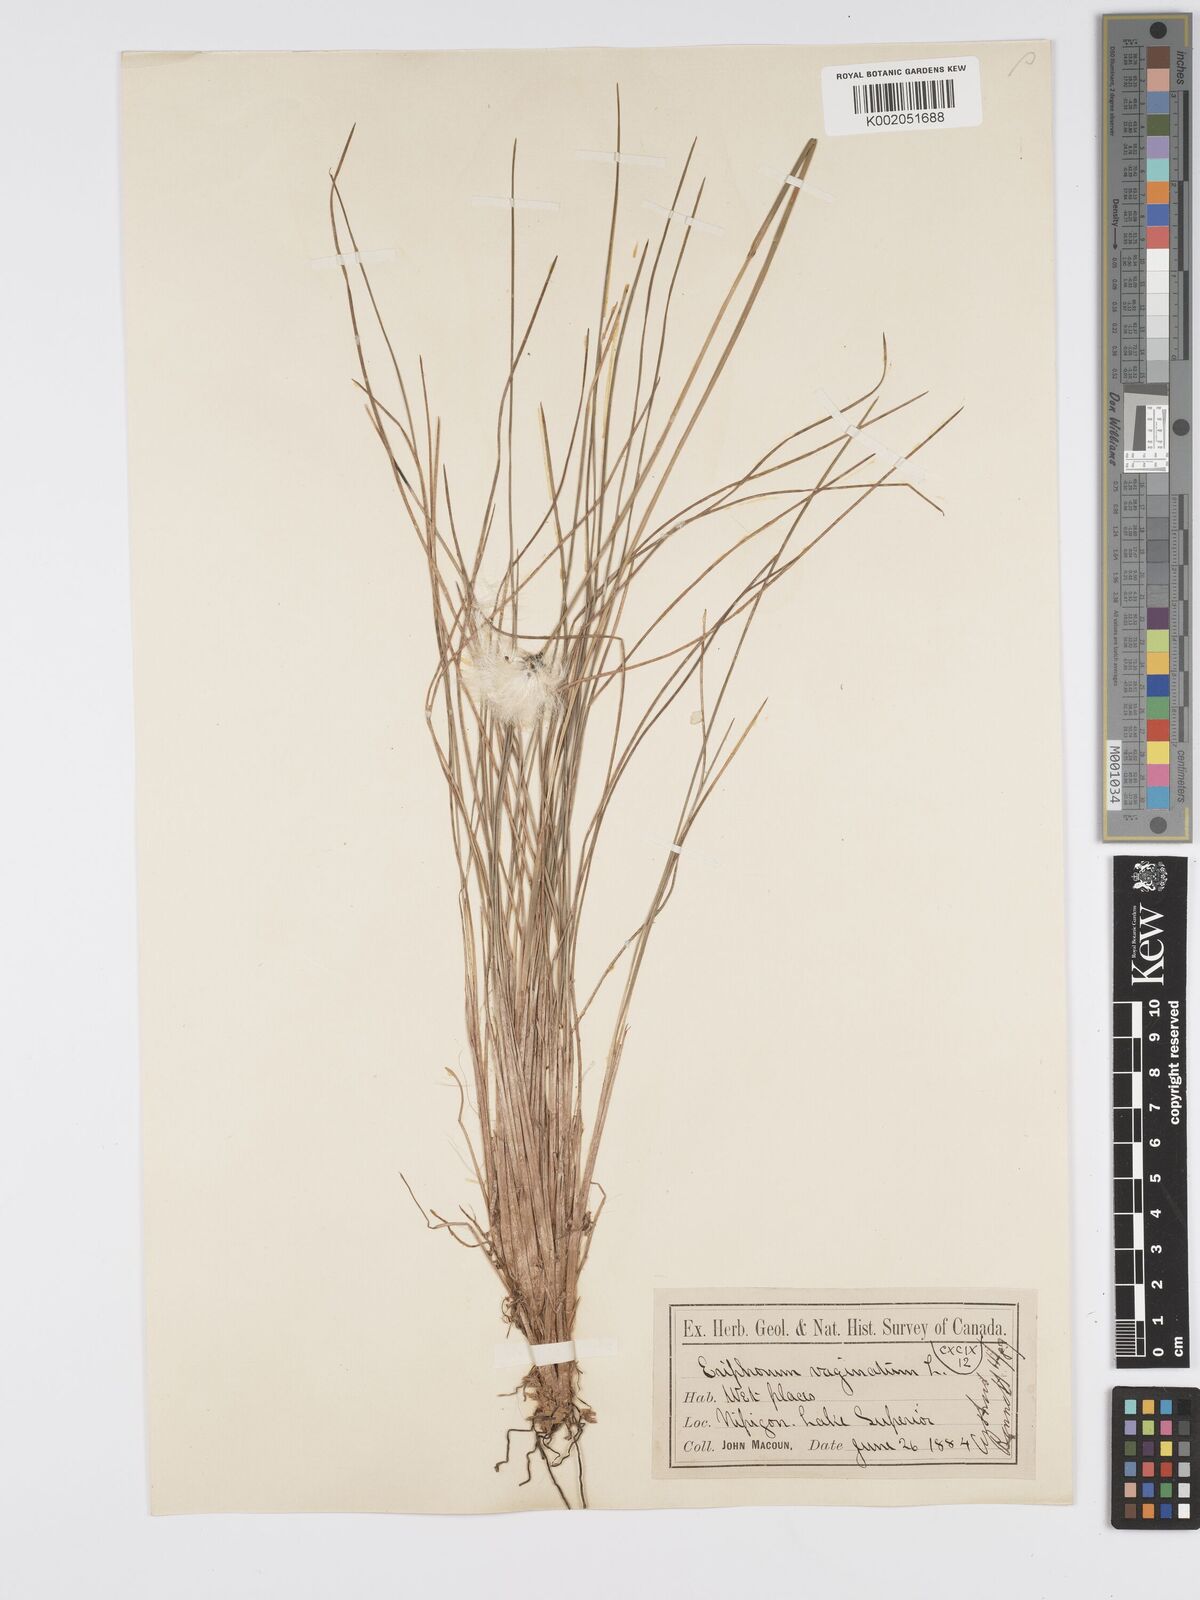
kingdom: Plantae
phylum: Tracheophyta
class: Liliopsida
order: Poales
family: Cyperaceae
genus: Eriophorum
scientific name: Eriophorum vaginatum
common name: Hare's-tail cottongrass
